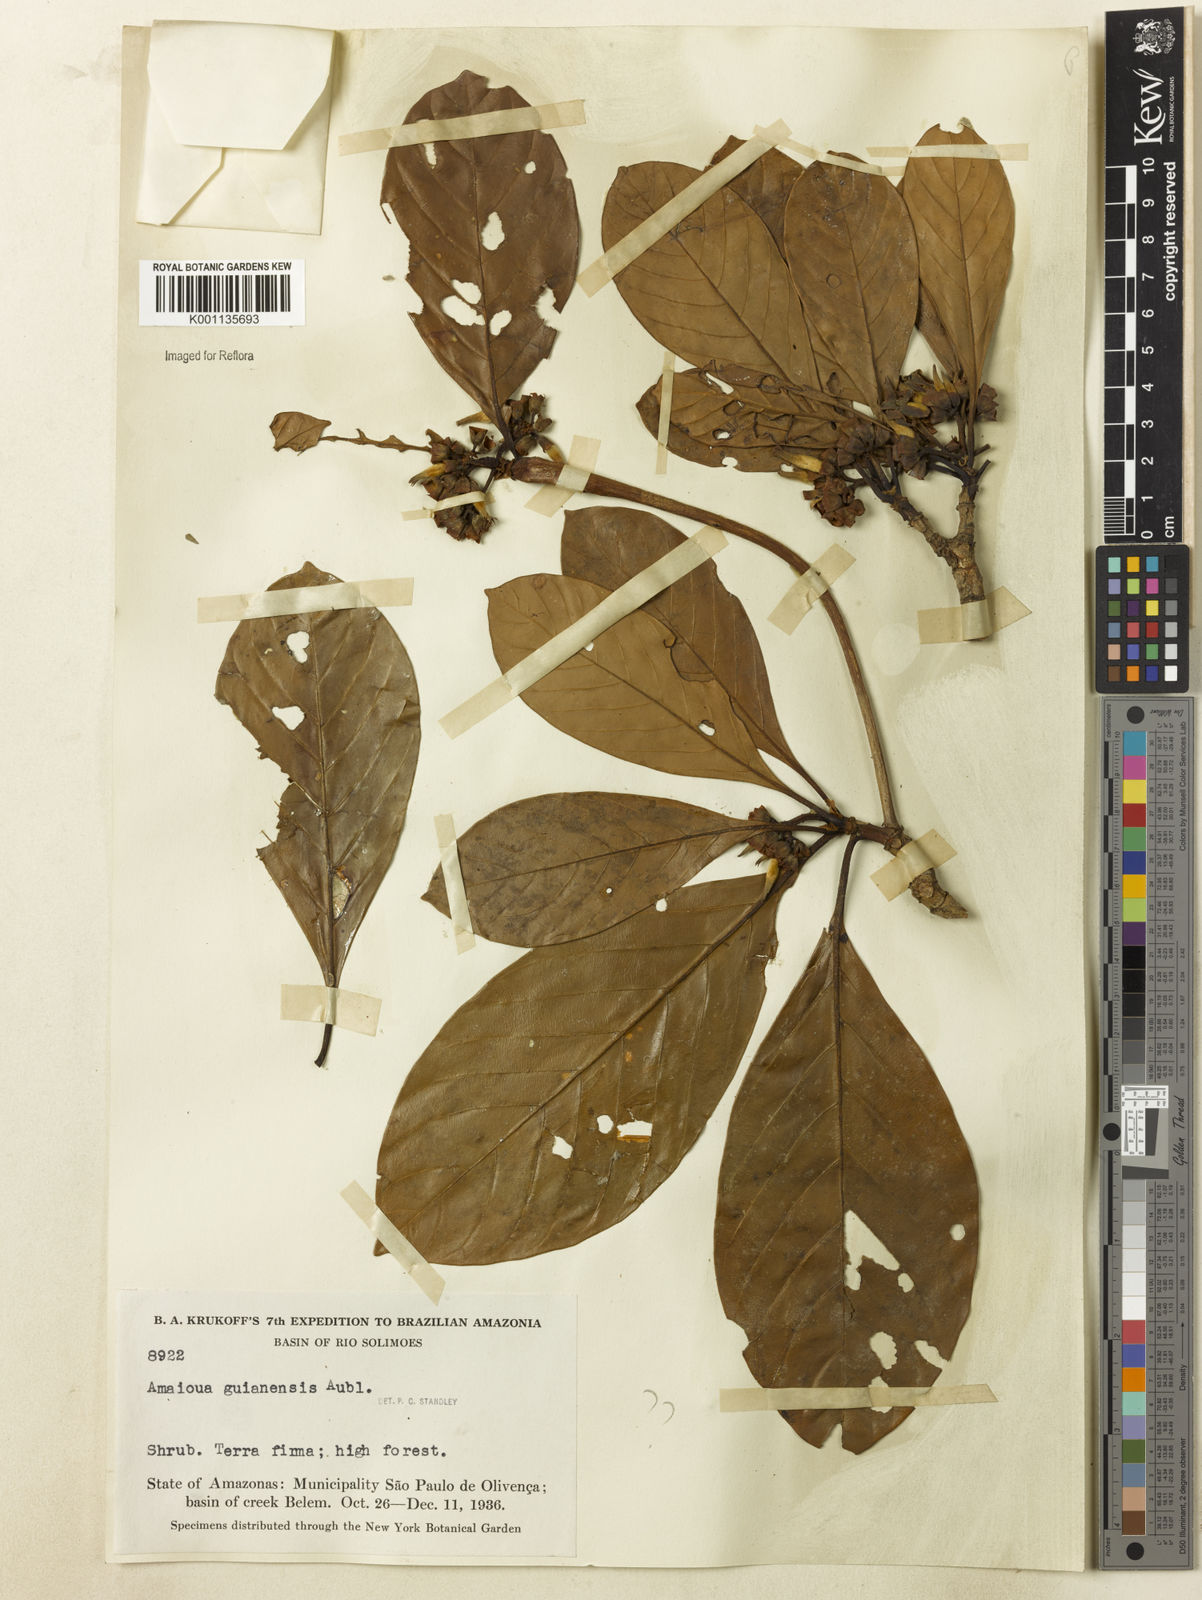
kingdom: Plantae
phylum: Tracheophyta
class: Magnoliopsida
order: Gentianales
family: Rubiaceae
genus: Amaioua
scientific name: Amaioua guianensis
